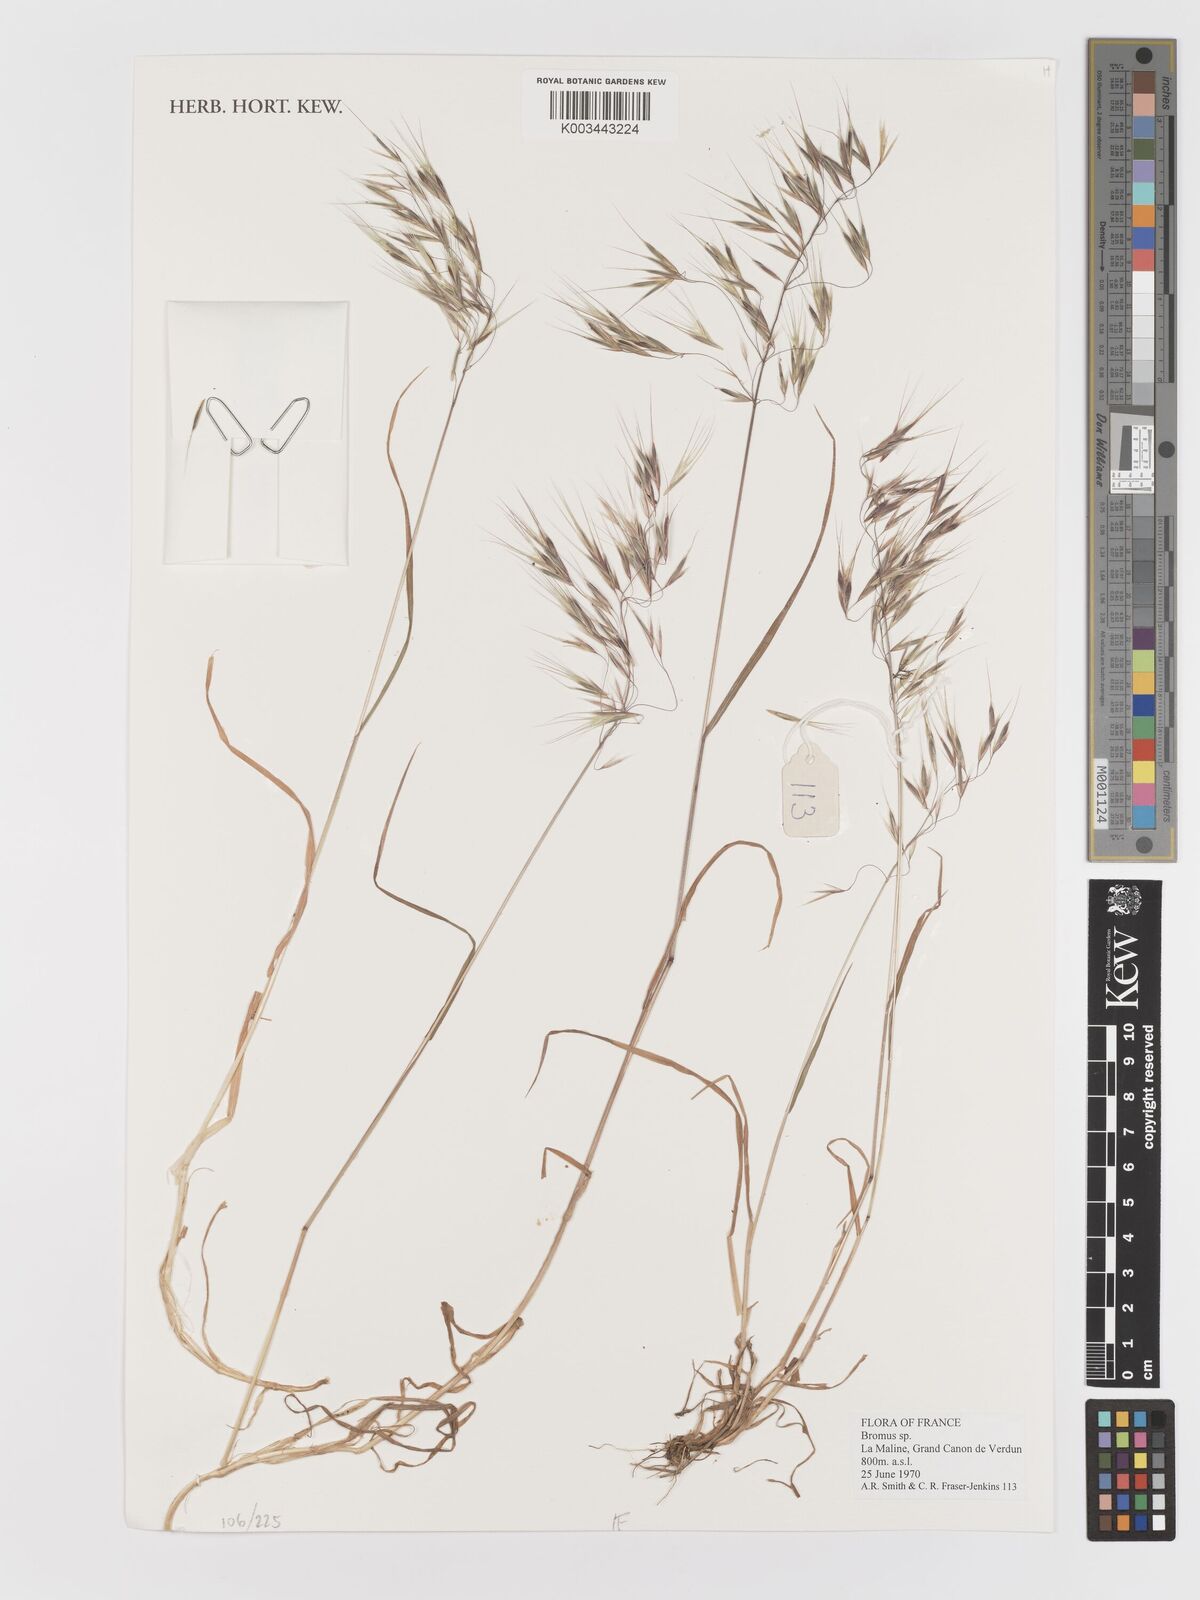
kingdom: Plantae
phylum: Tracheophyta
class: Liliopsida
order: Poales
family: Poaceae
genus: Bromus
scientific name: Bromus
